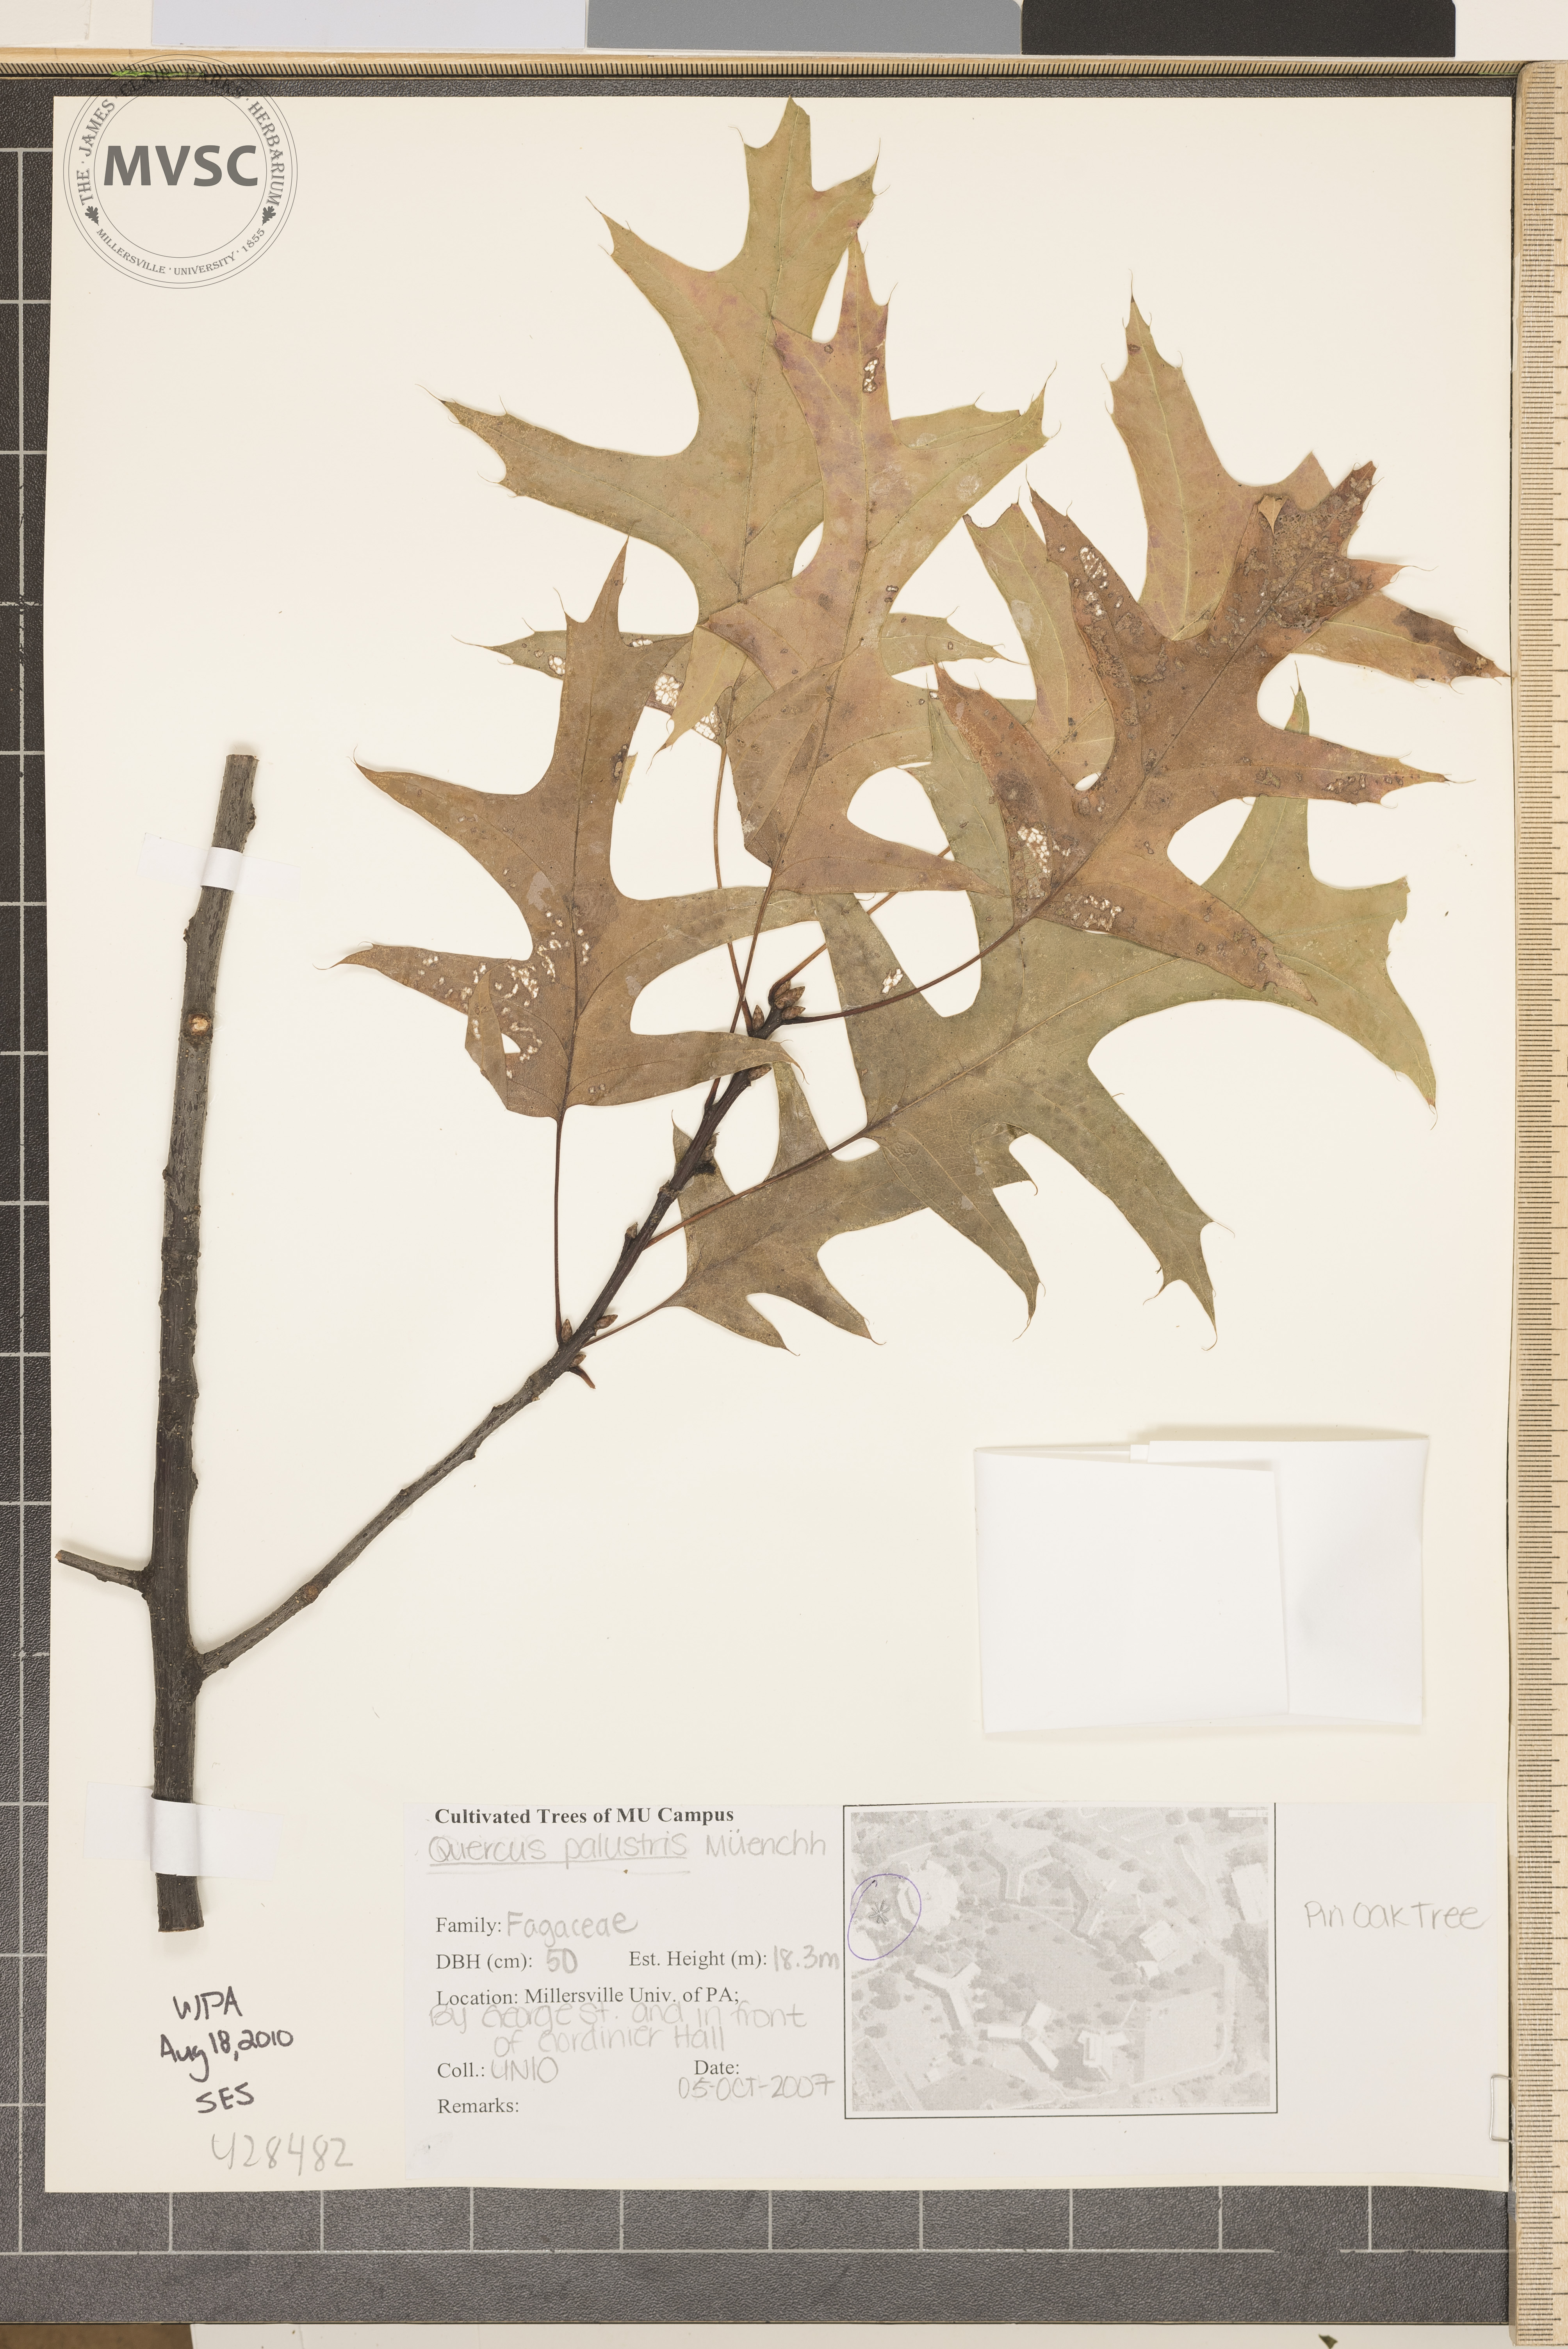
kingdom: Plantae
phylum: Tracheophyta
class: Magnoliopsida
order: Fagales
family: Fagaceae
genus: Quercus
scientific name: Quercus palustris
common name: Pin Oak
